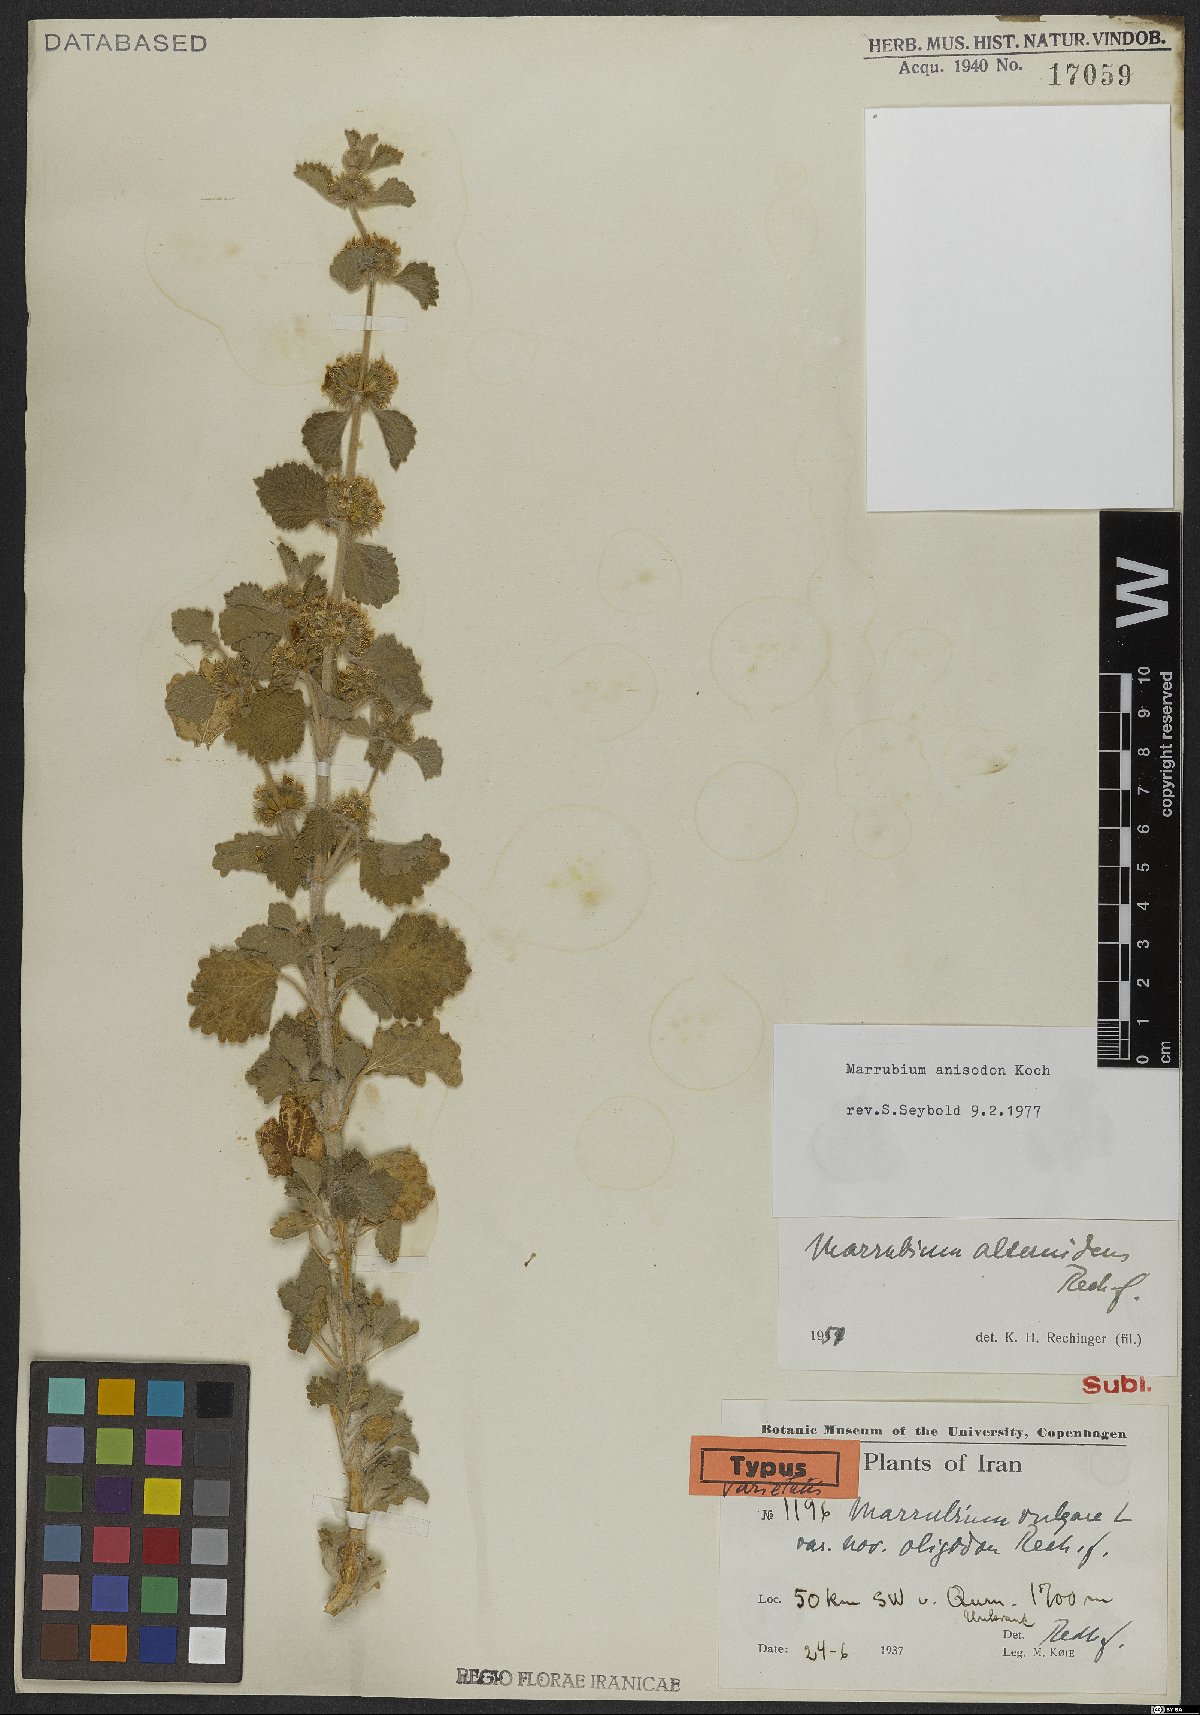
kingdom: Plantae
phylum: Tracheophyta
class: Magnoliopsida
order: Lamiales
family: Lamiaceae
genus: Marrubium
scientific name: Marrubium anisodon
